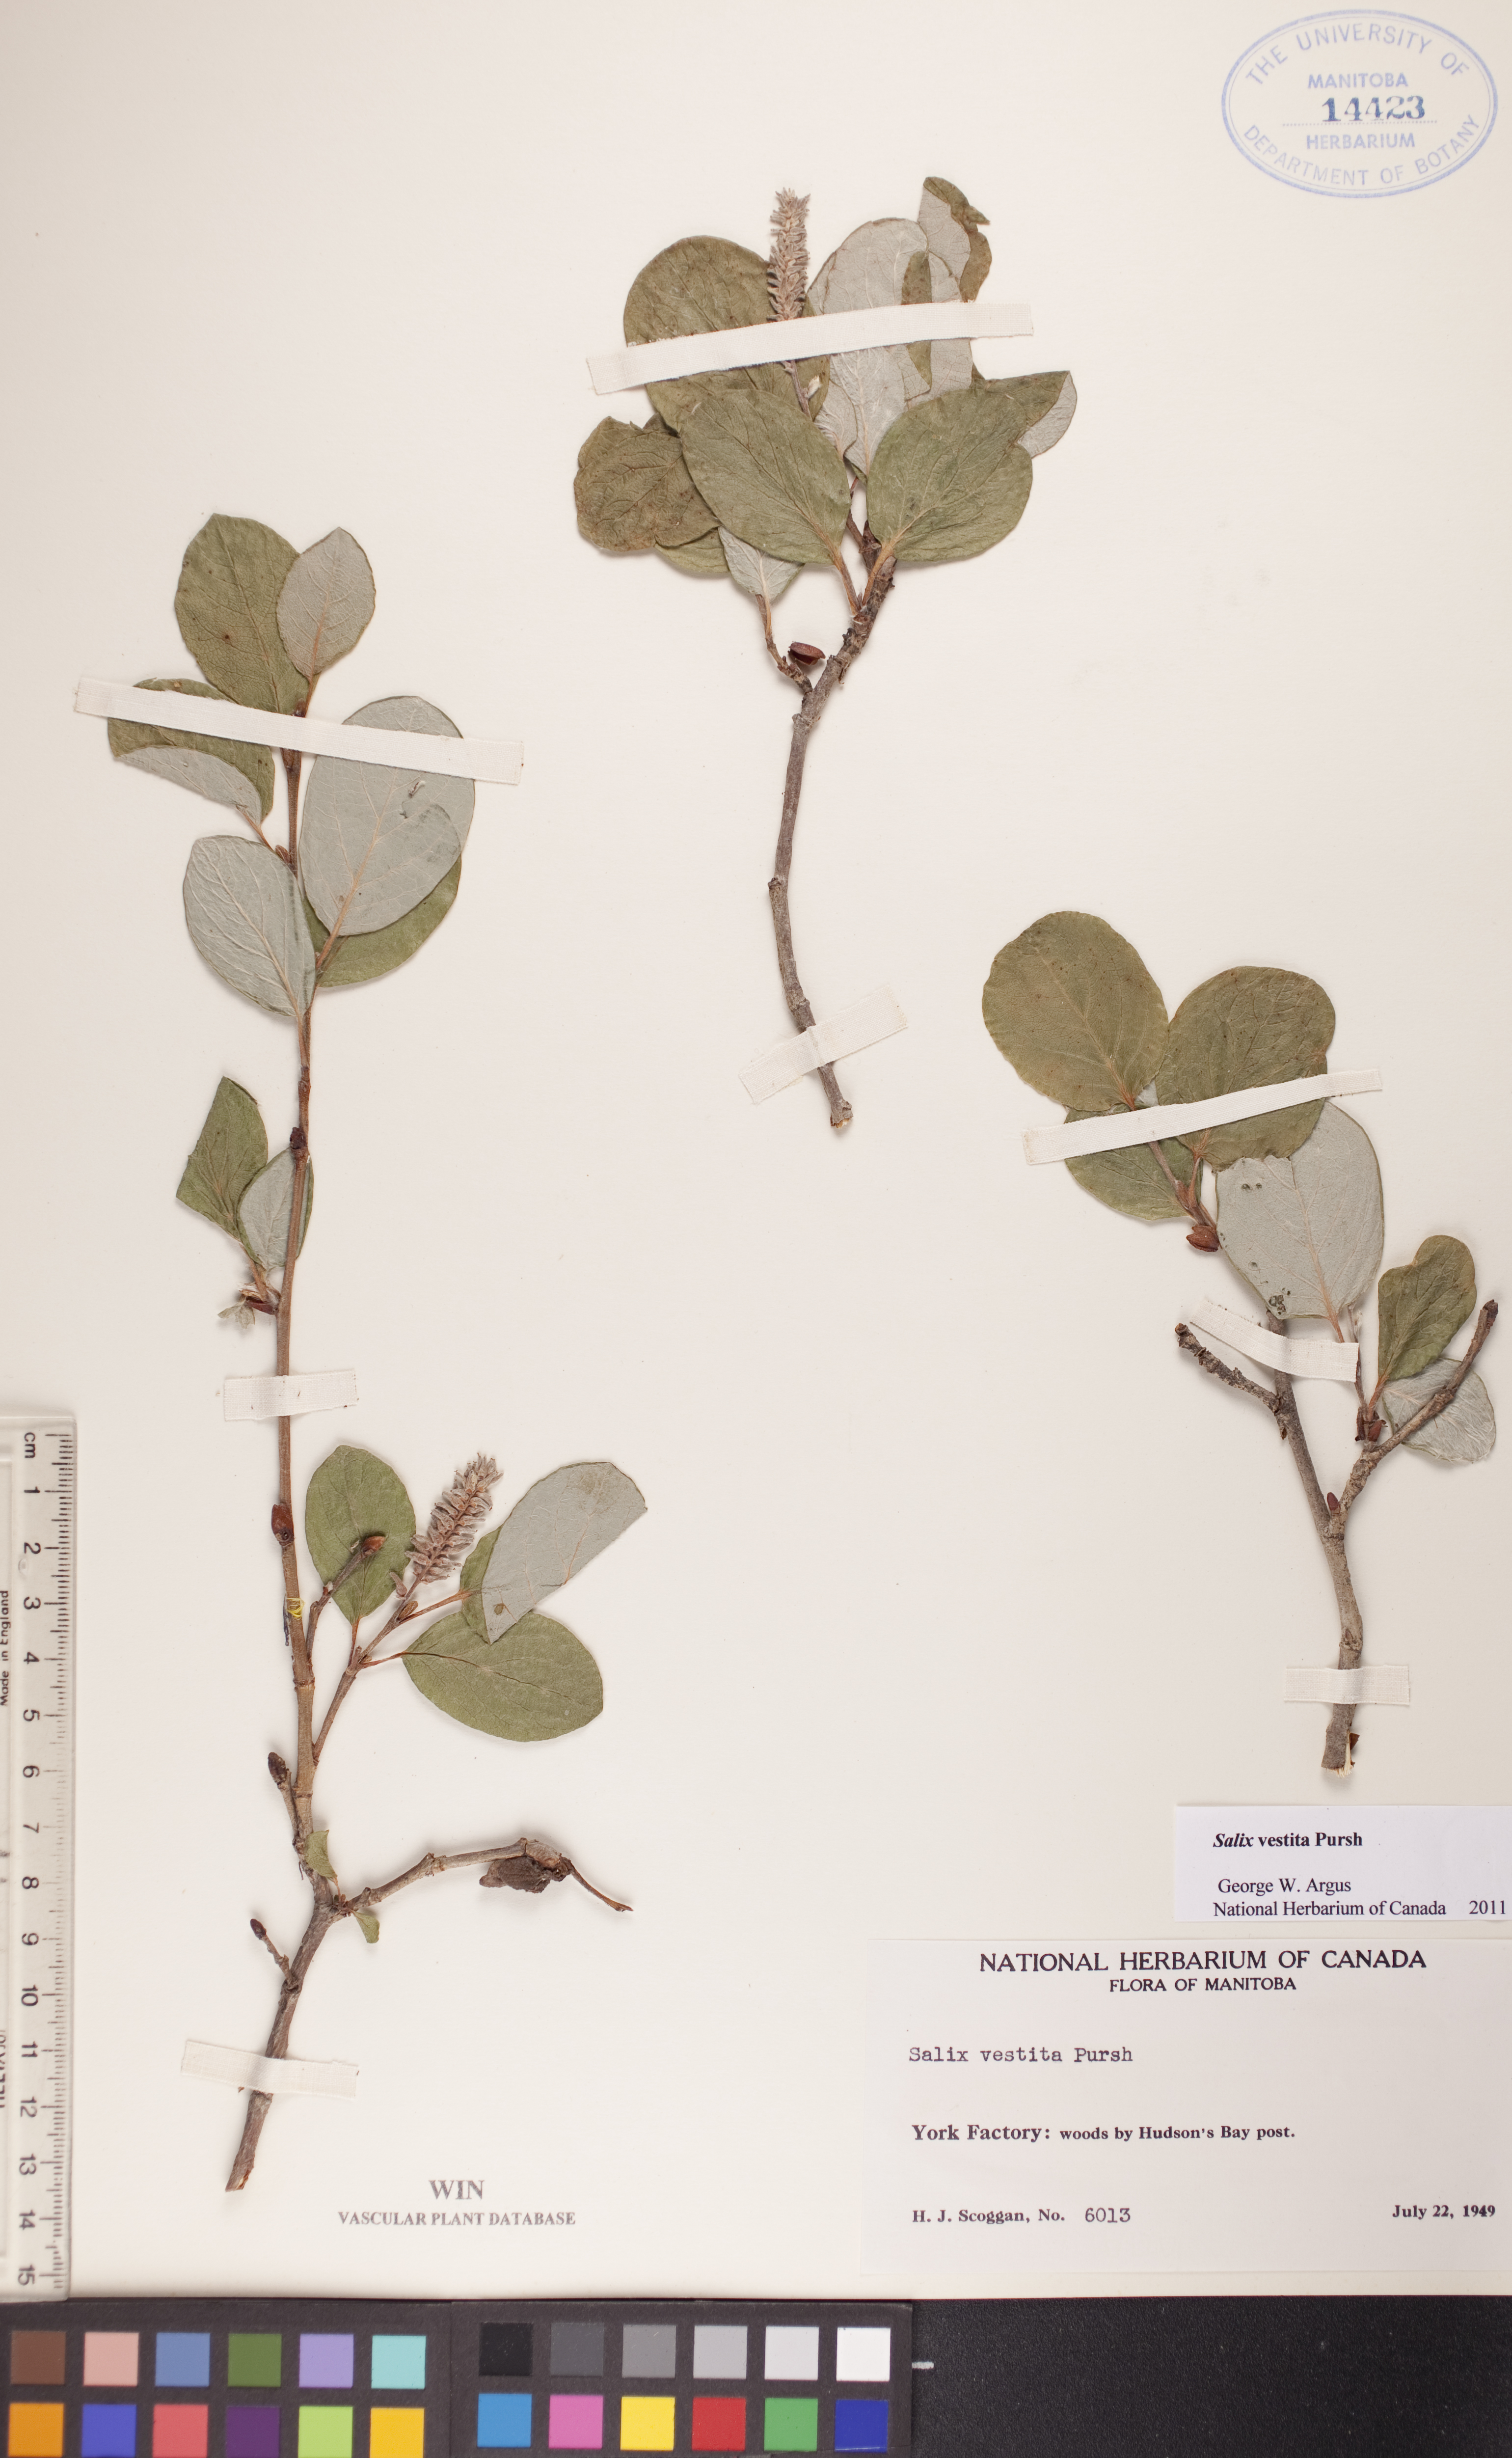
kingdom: Plantae
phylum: Tracheophyta
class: Magnoliopsida
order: Malpighiales
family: Salicaceae
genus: Salix
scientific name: Salix vestita
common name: Hairy willow
